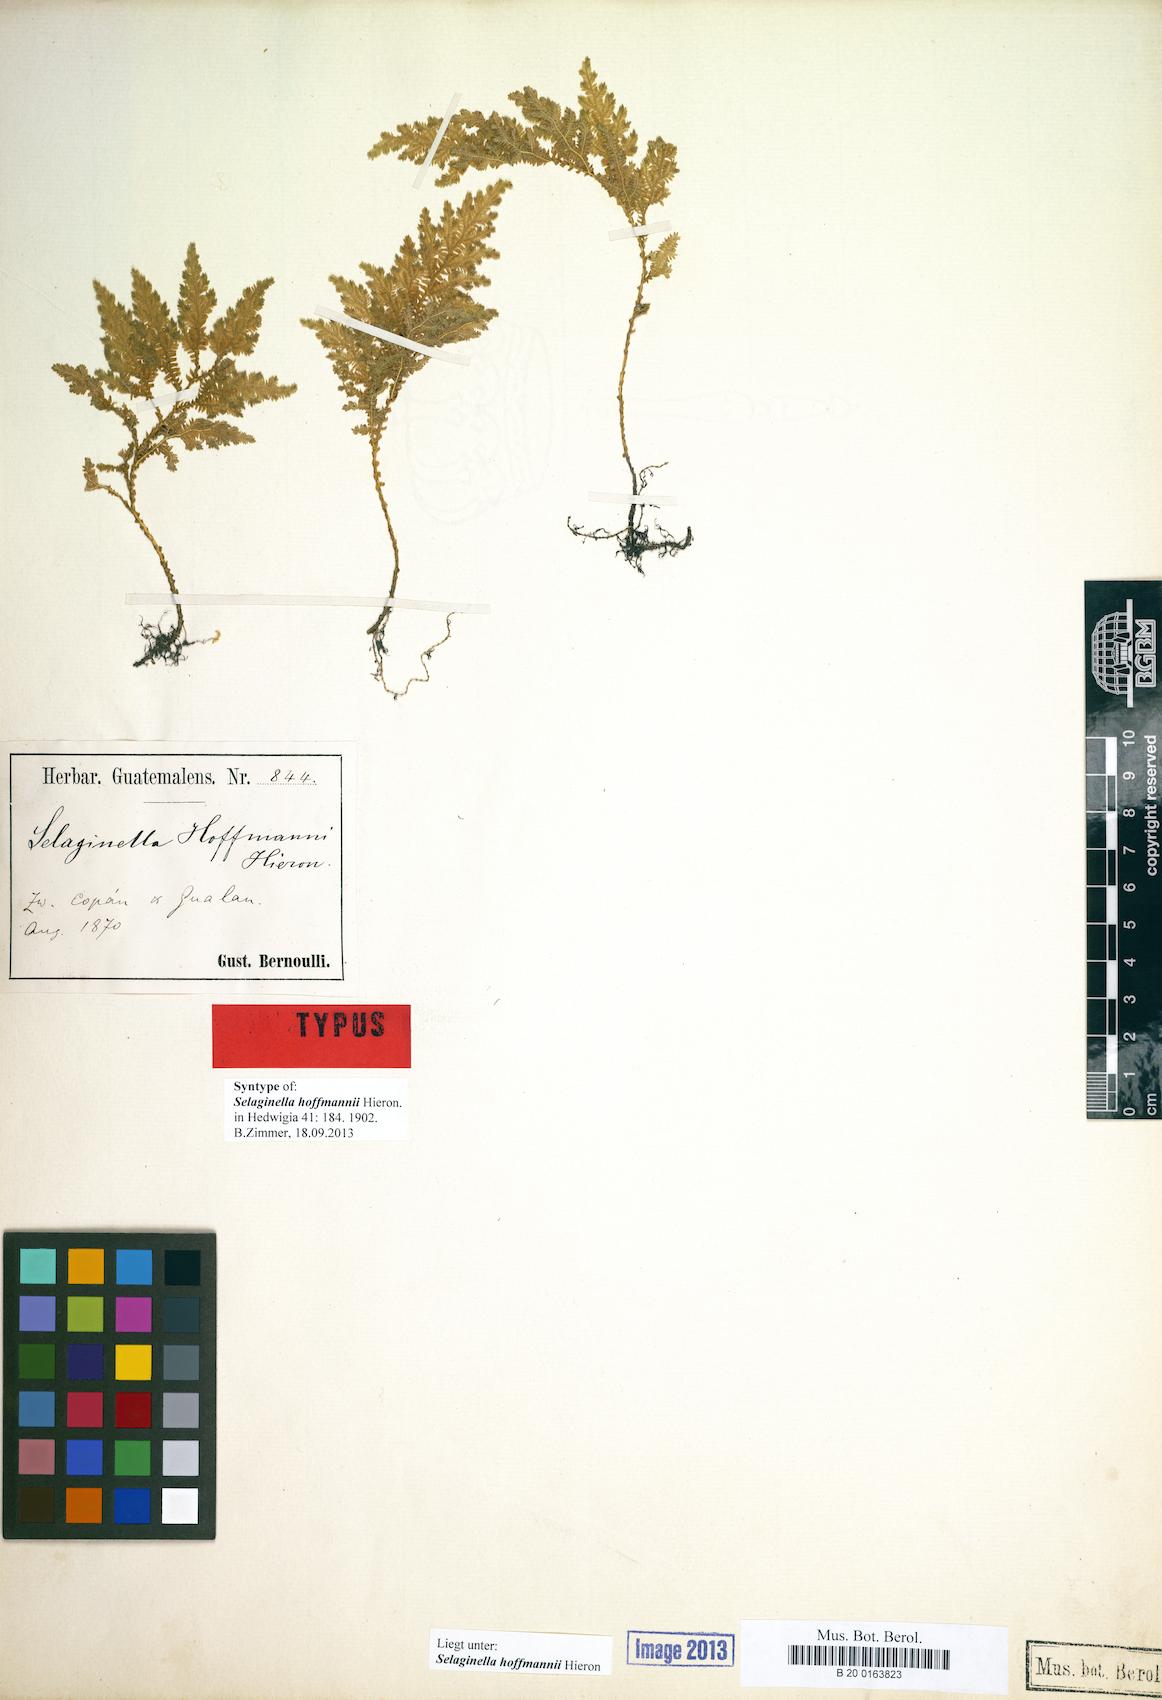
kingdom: Plantae
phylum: Tracheophyta
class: Lycopodiopsida
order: Selaginellales
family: Selaginellaceae
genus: Selaginella
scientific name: Selaginella hoffmannii
